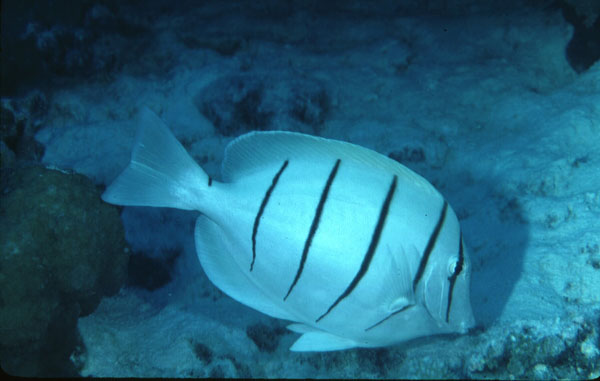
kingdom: Animalia
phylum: Chordata
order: Perciformes
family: Acanthuridae
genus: Acanthurus
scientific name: Acanthurus triostegus
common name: Convict surgeonfish
